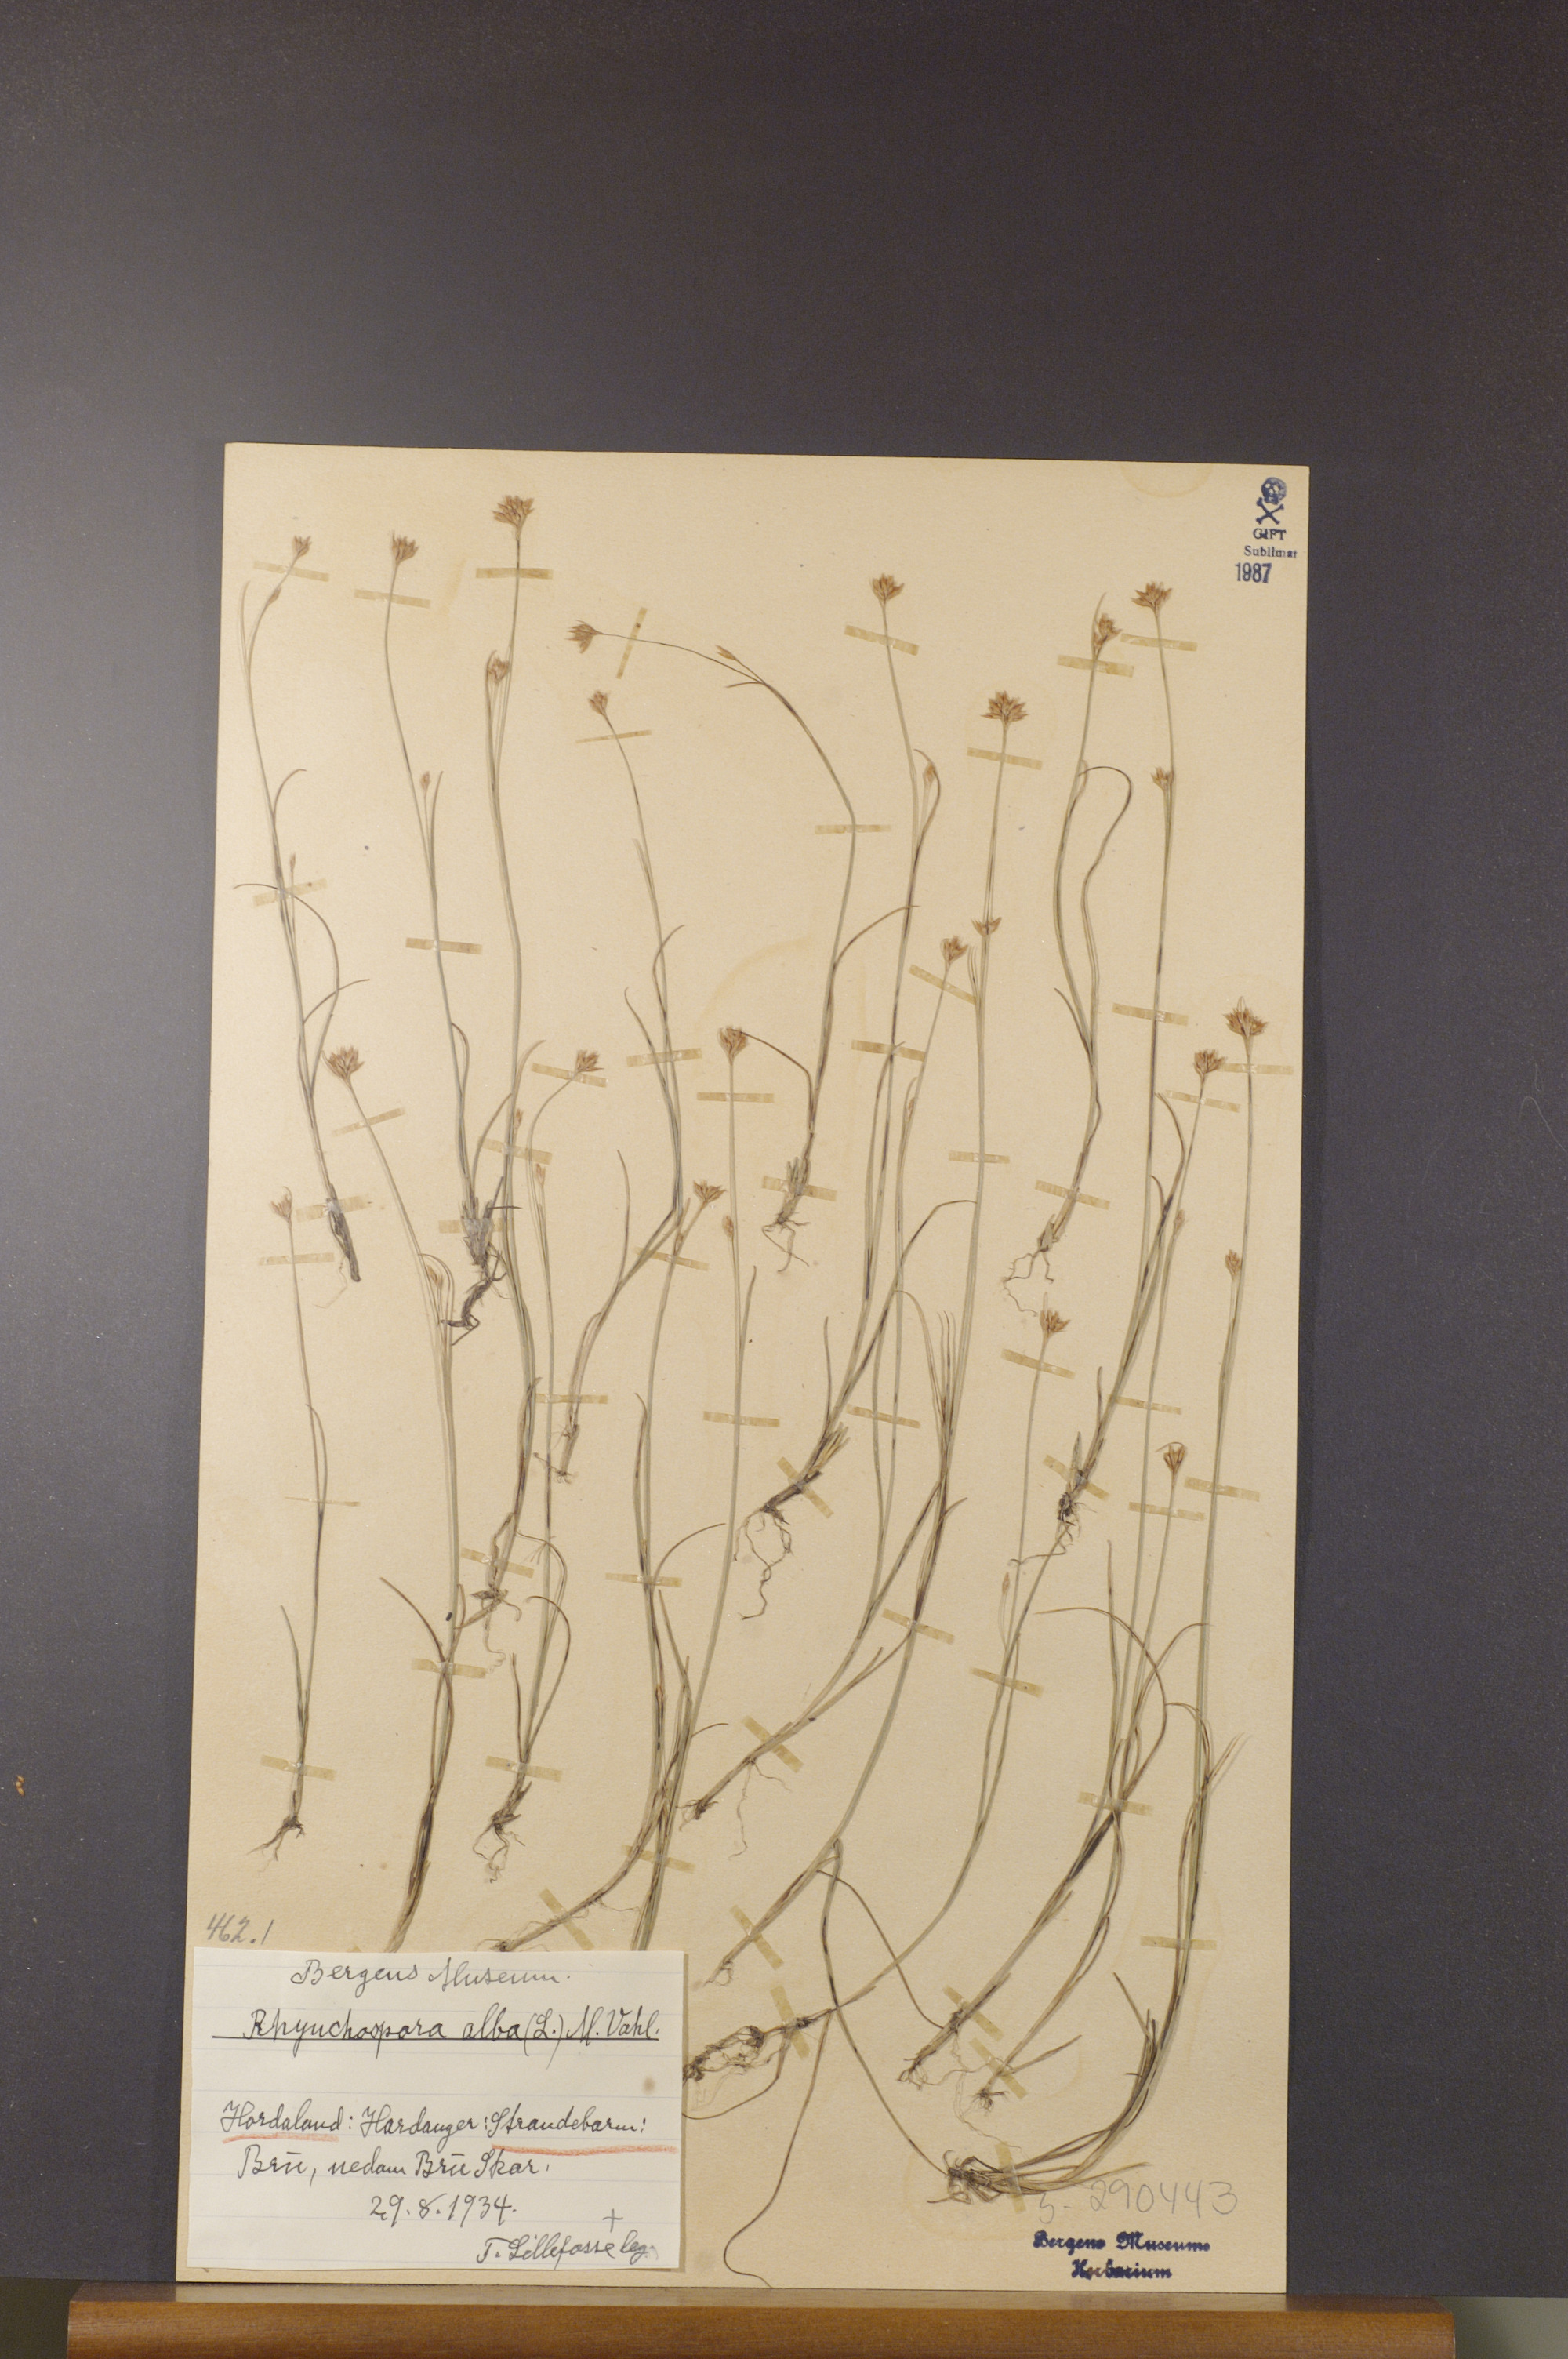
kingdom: Plantae
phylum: Tracheophyta
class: Liliopsida
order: Poales
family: Cyperaceae
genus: Rhynchospora
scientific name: Rhynchospora alba
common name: White beak-sedge
